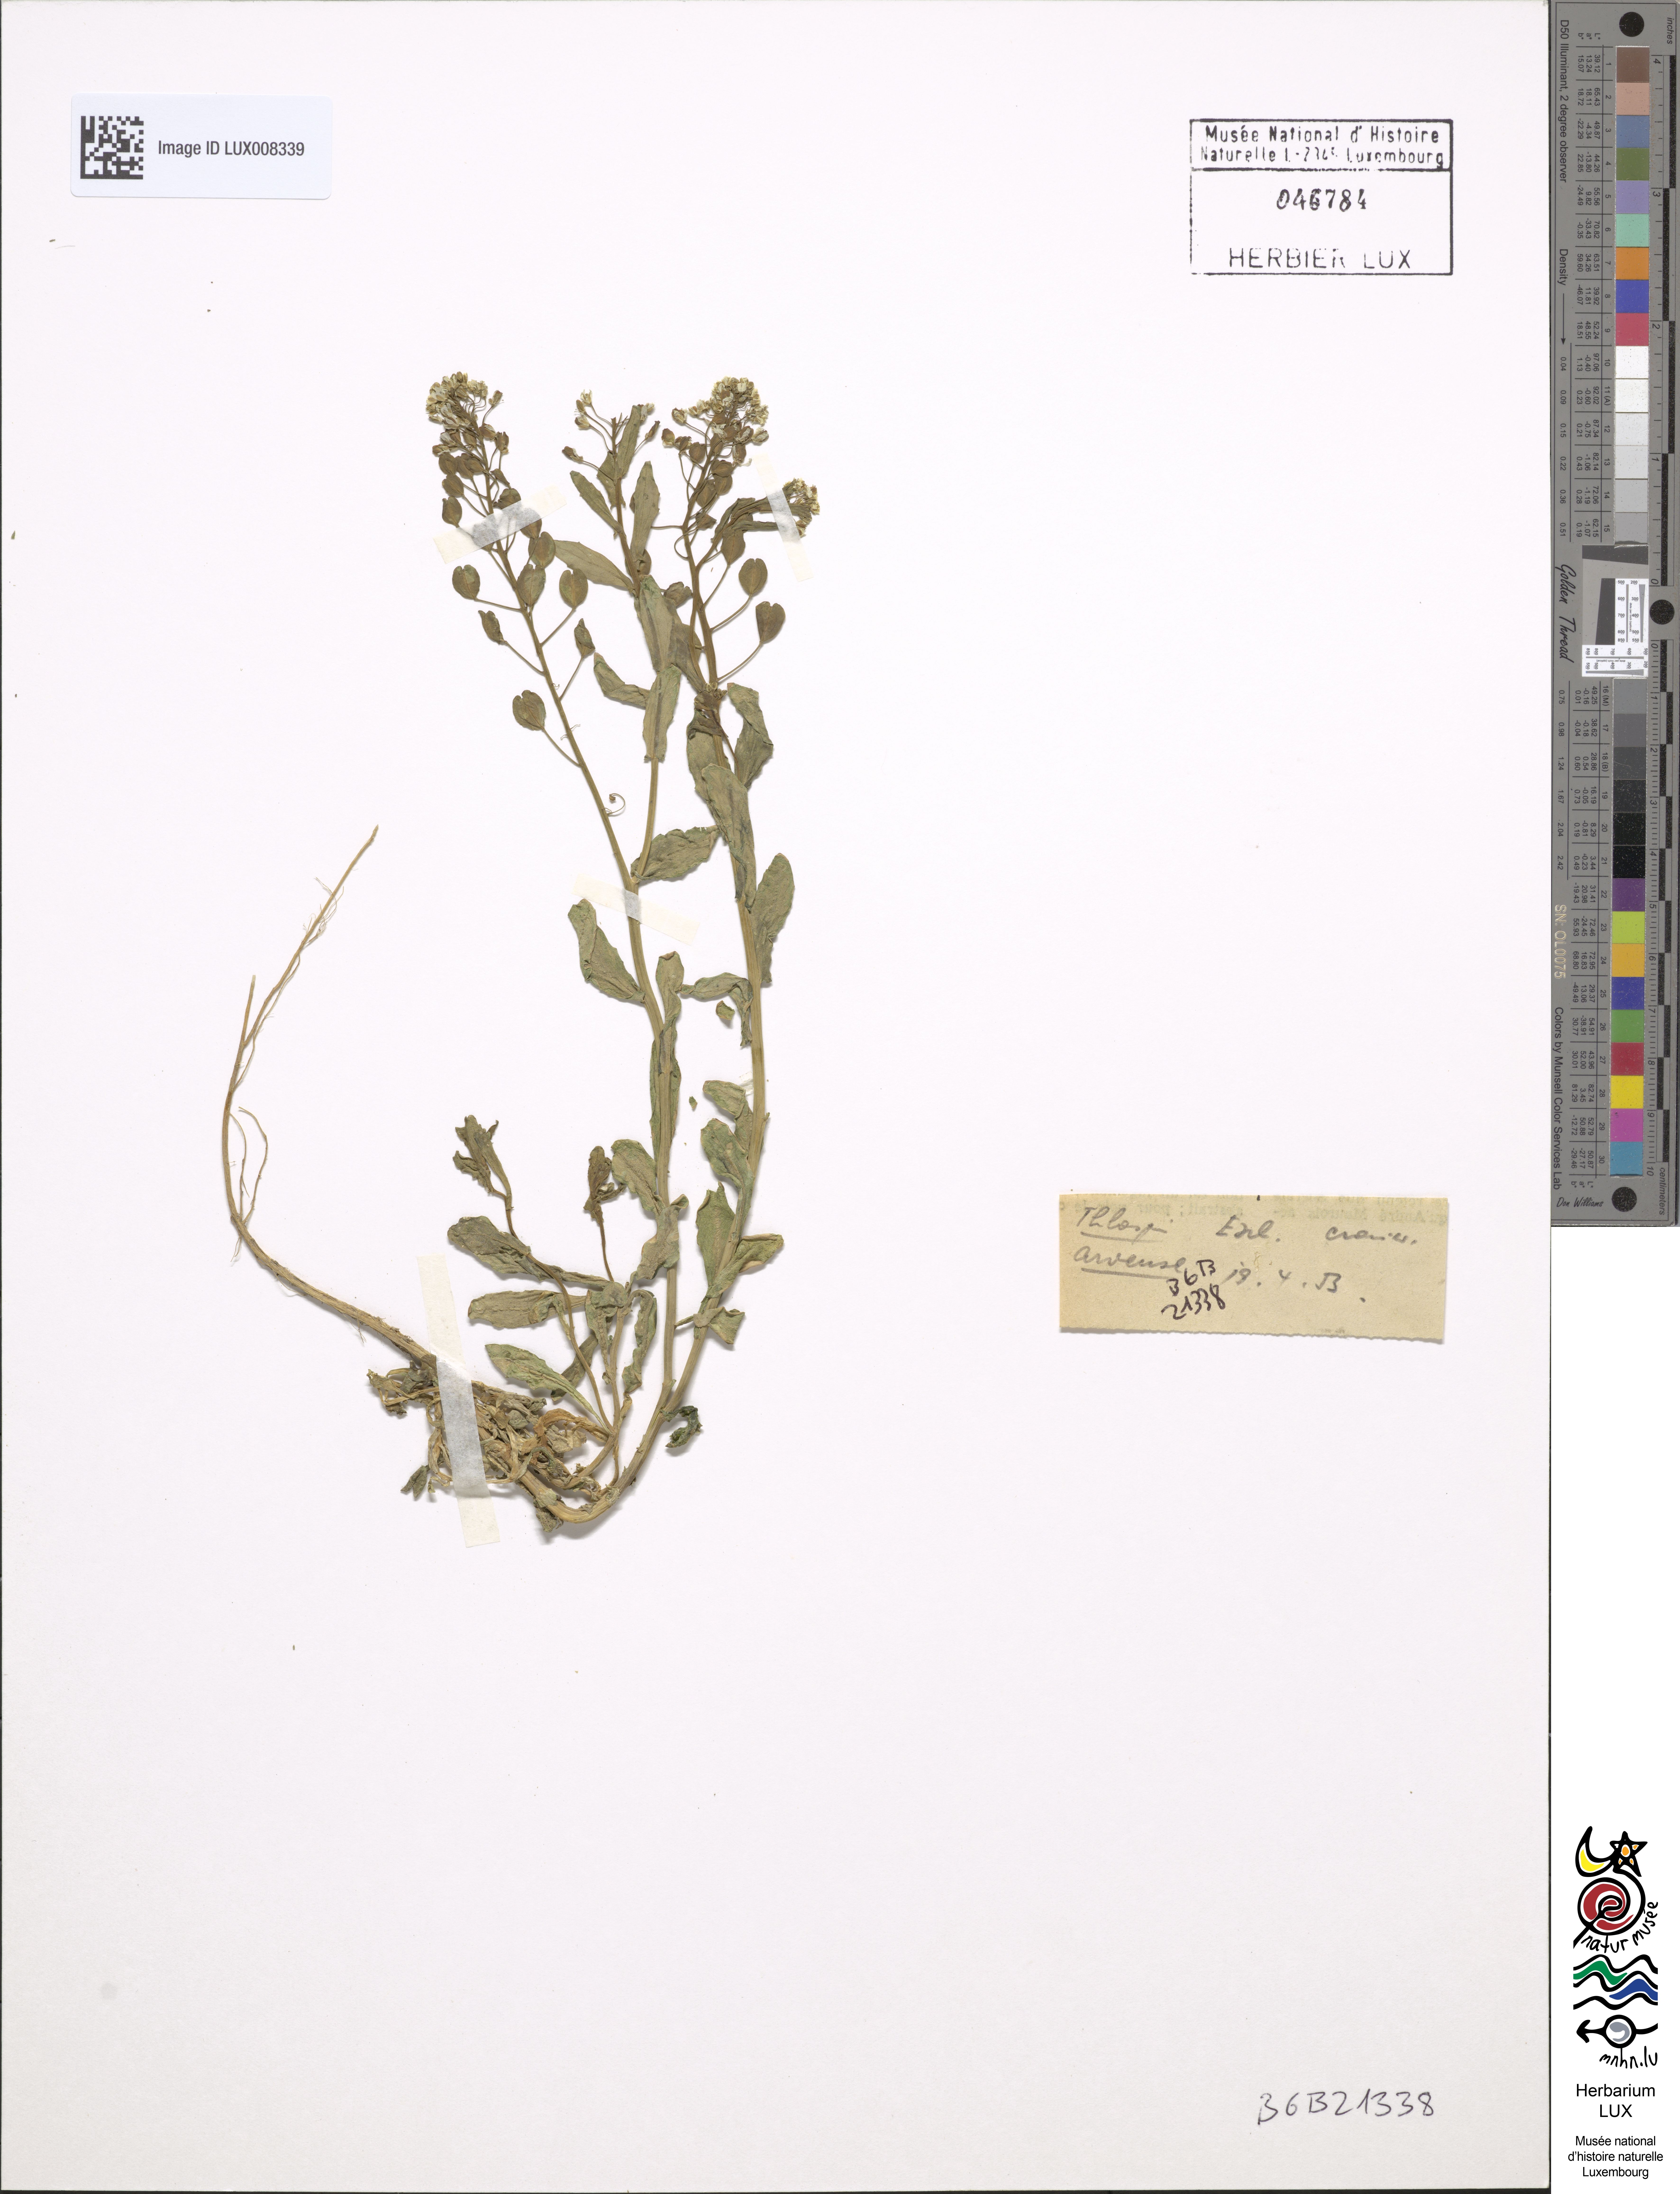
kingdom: Plantae
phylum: Tracheophyta
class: Magnoliopsida
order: Brassicales
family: Brassicaceae
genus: Thlaspi
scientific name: Thlaspi arvense
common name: Field pennycress
